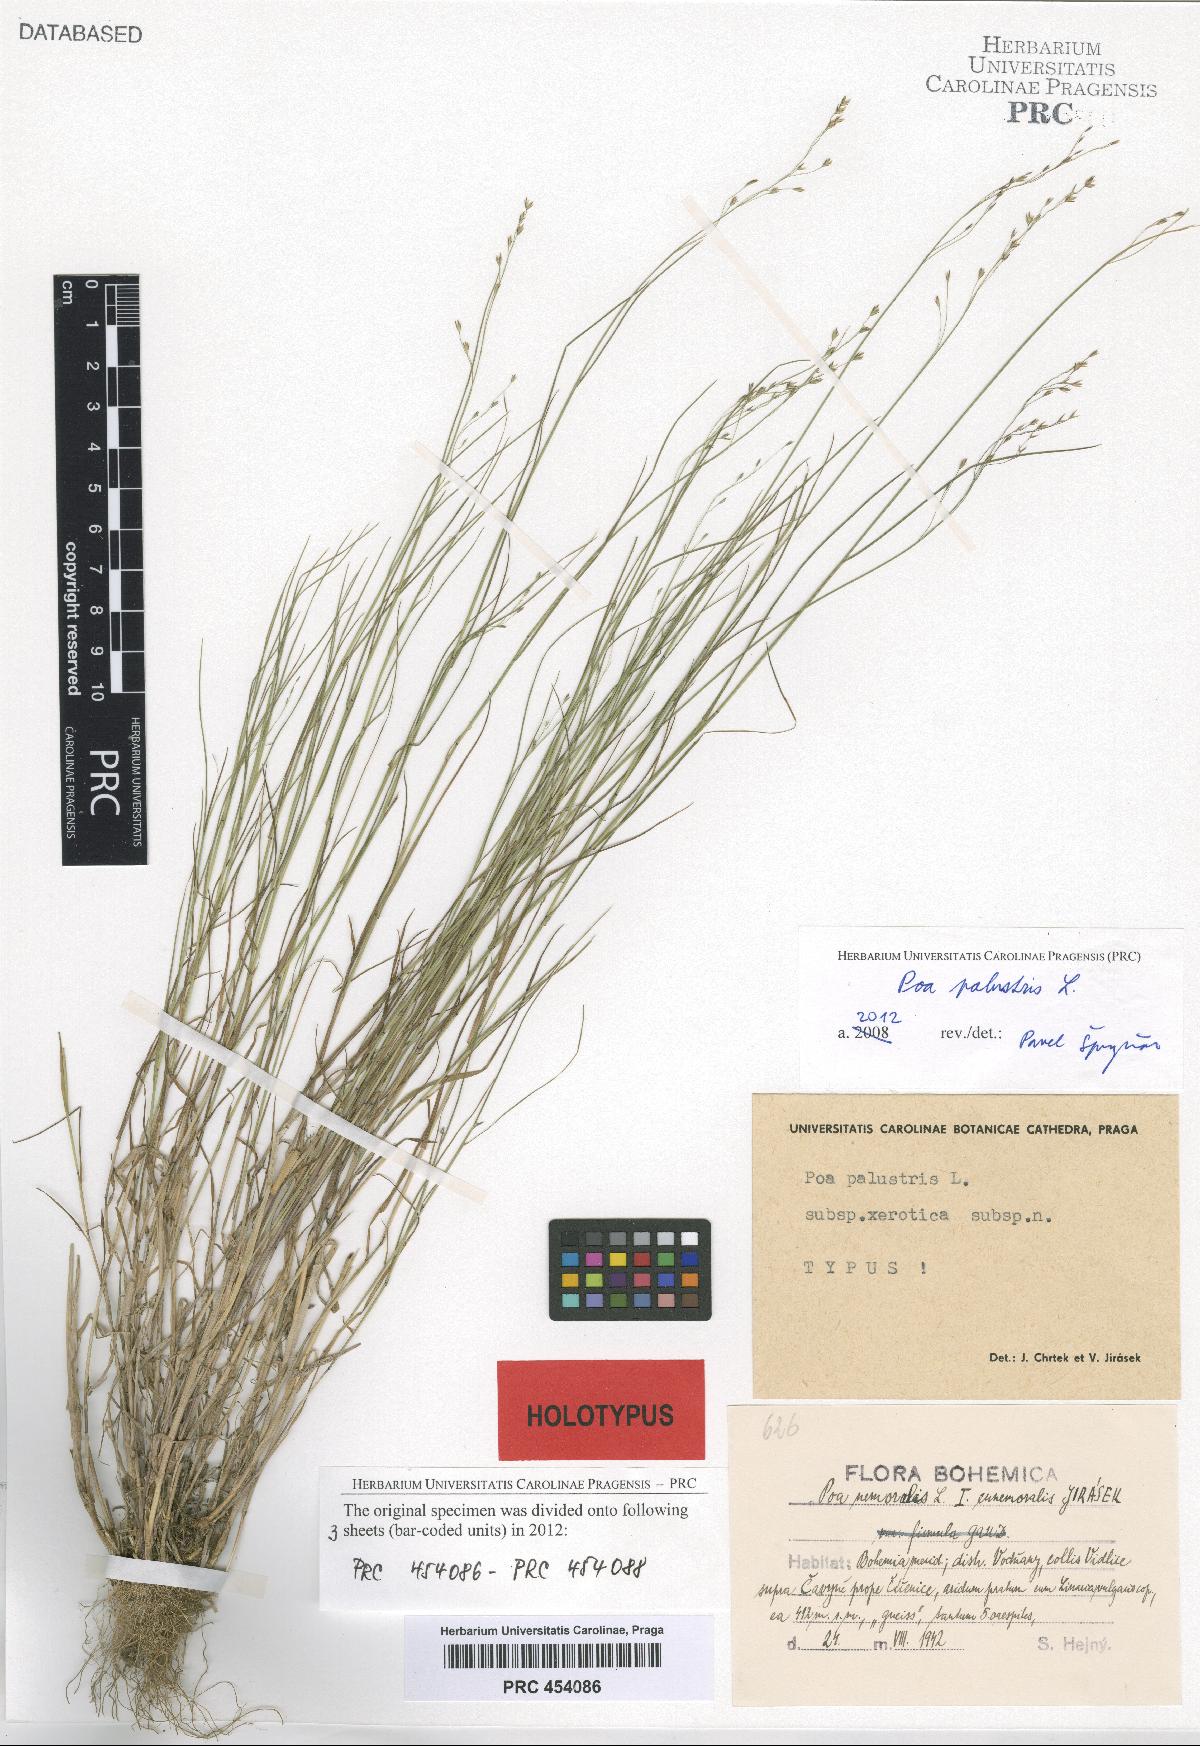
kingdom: Plantae
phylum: Tracheophyta
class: Liliopsida
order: Poales
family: Poaceae
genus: Poa
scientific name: Poa palustris
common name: Swamp meadow-grass
